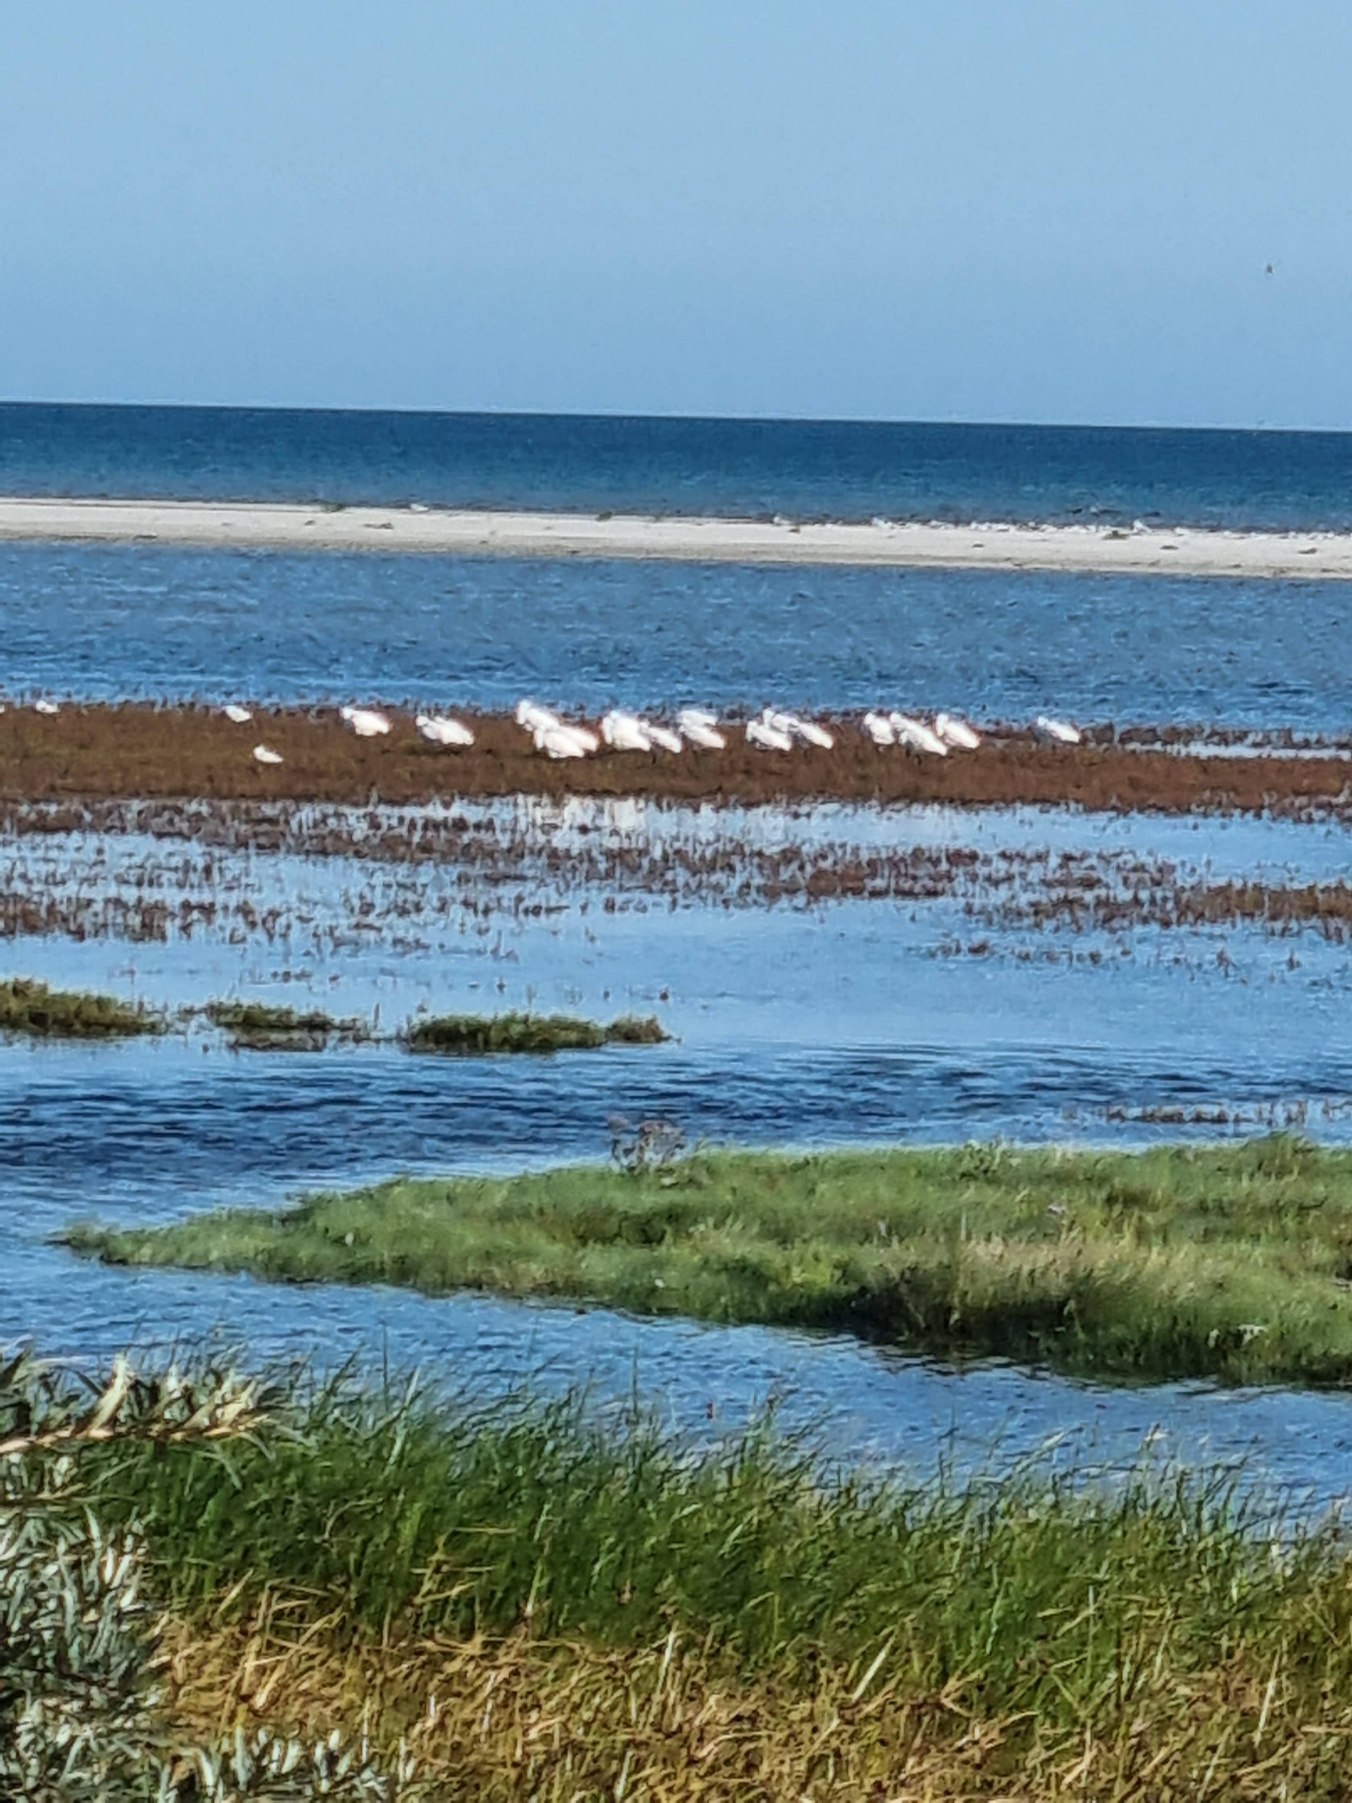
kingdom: Animalia
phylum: Chordata
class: Aves
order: Pelecaniformes
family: Threskiornithidae
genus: Platalea
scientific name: Platalea leucorodia
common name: Skestork
